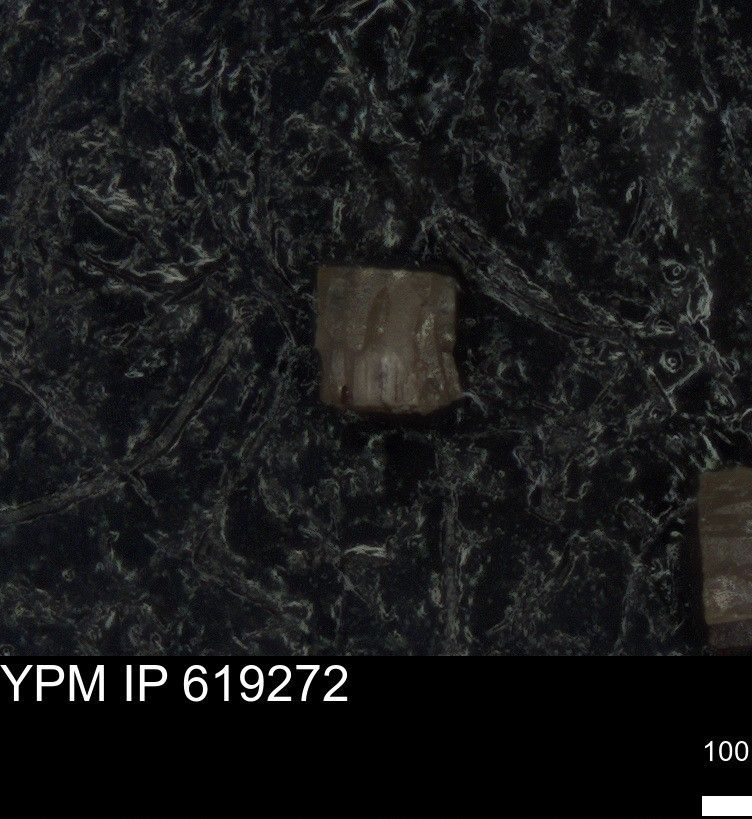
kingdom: Animalia
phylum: Echinodermata
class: Echinoidea
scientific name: Echinoidea
